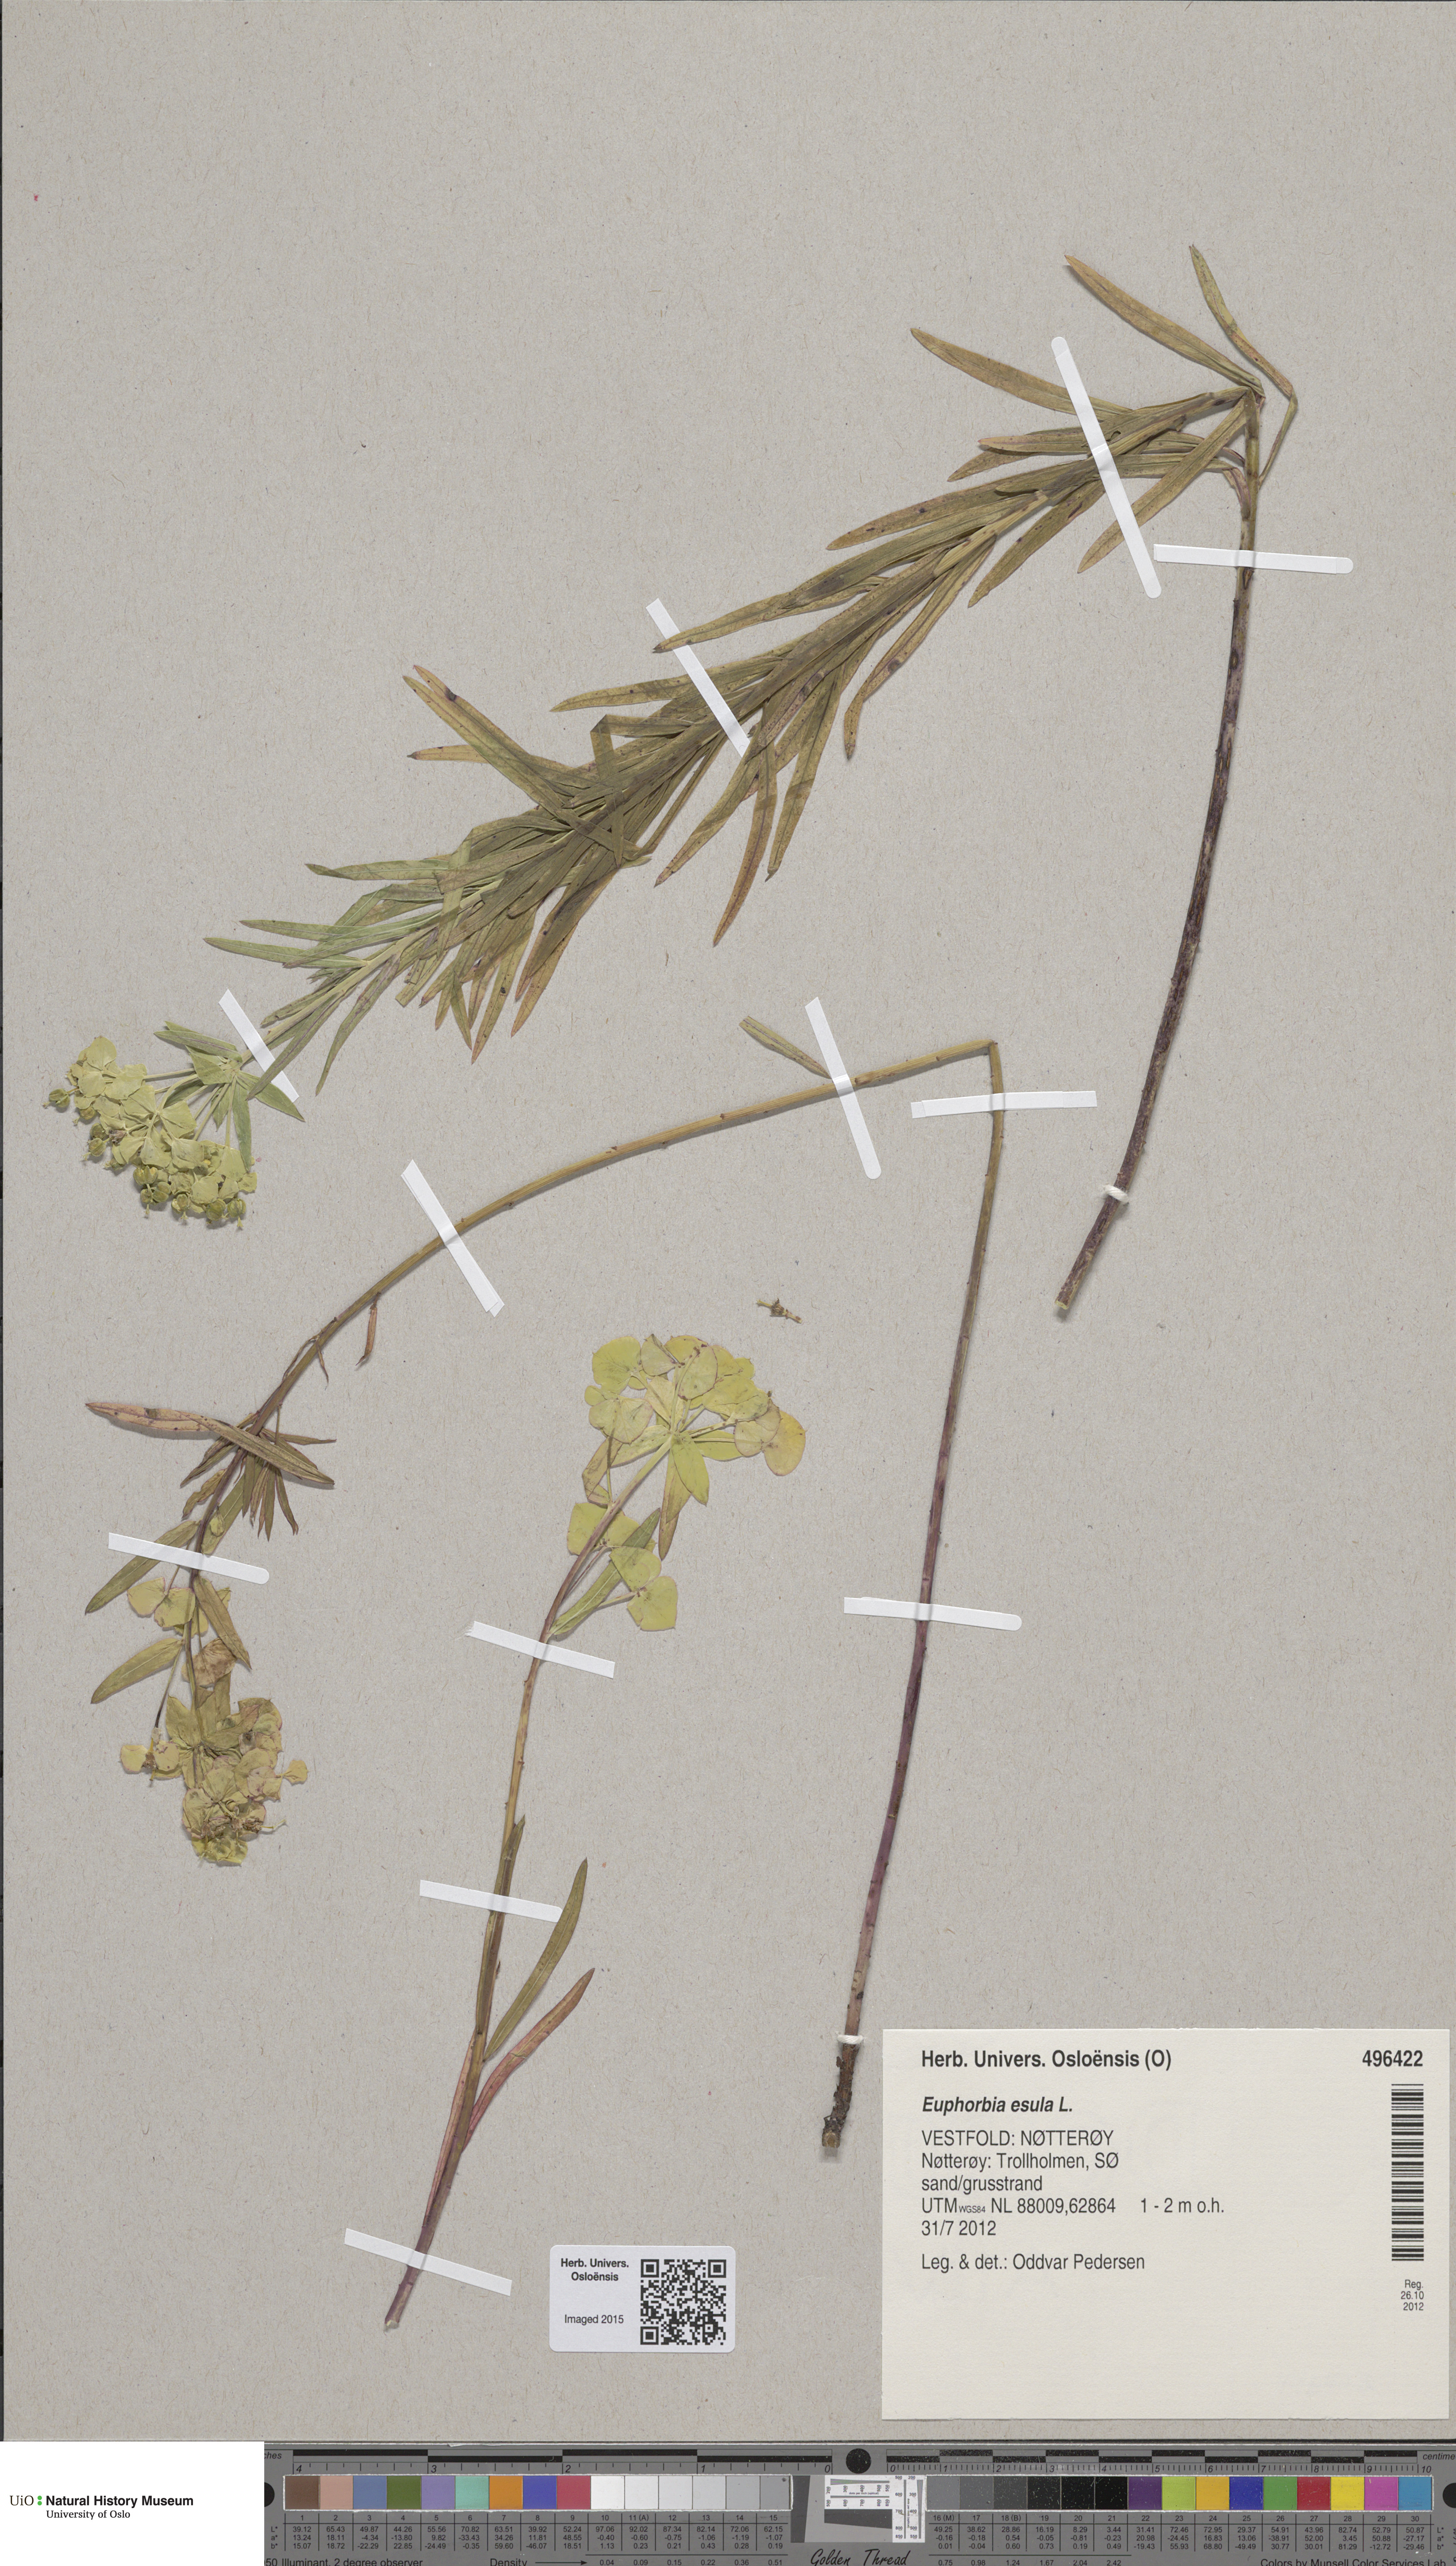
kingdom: Plantae
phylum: Tracheophyta
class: Magnoliopsida
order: Malpighiales
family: Euphorbiaceae
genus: Euphorbia
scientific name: Euphorbia tommasiniana
